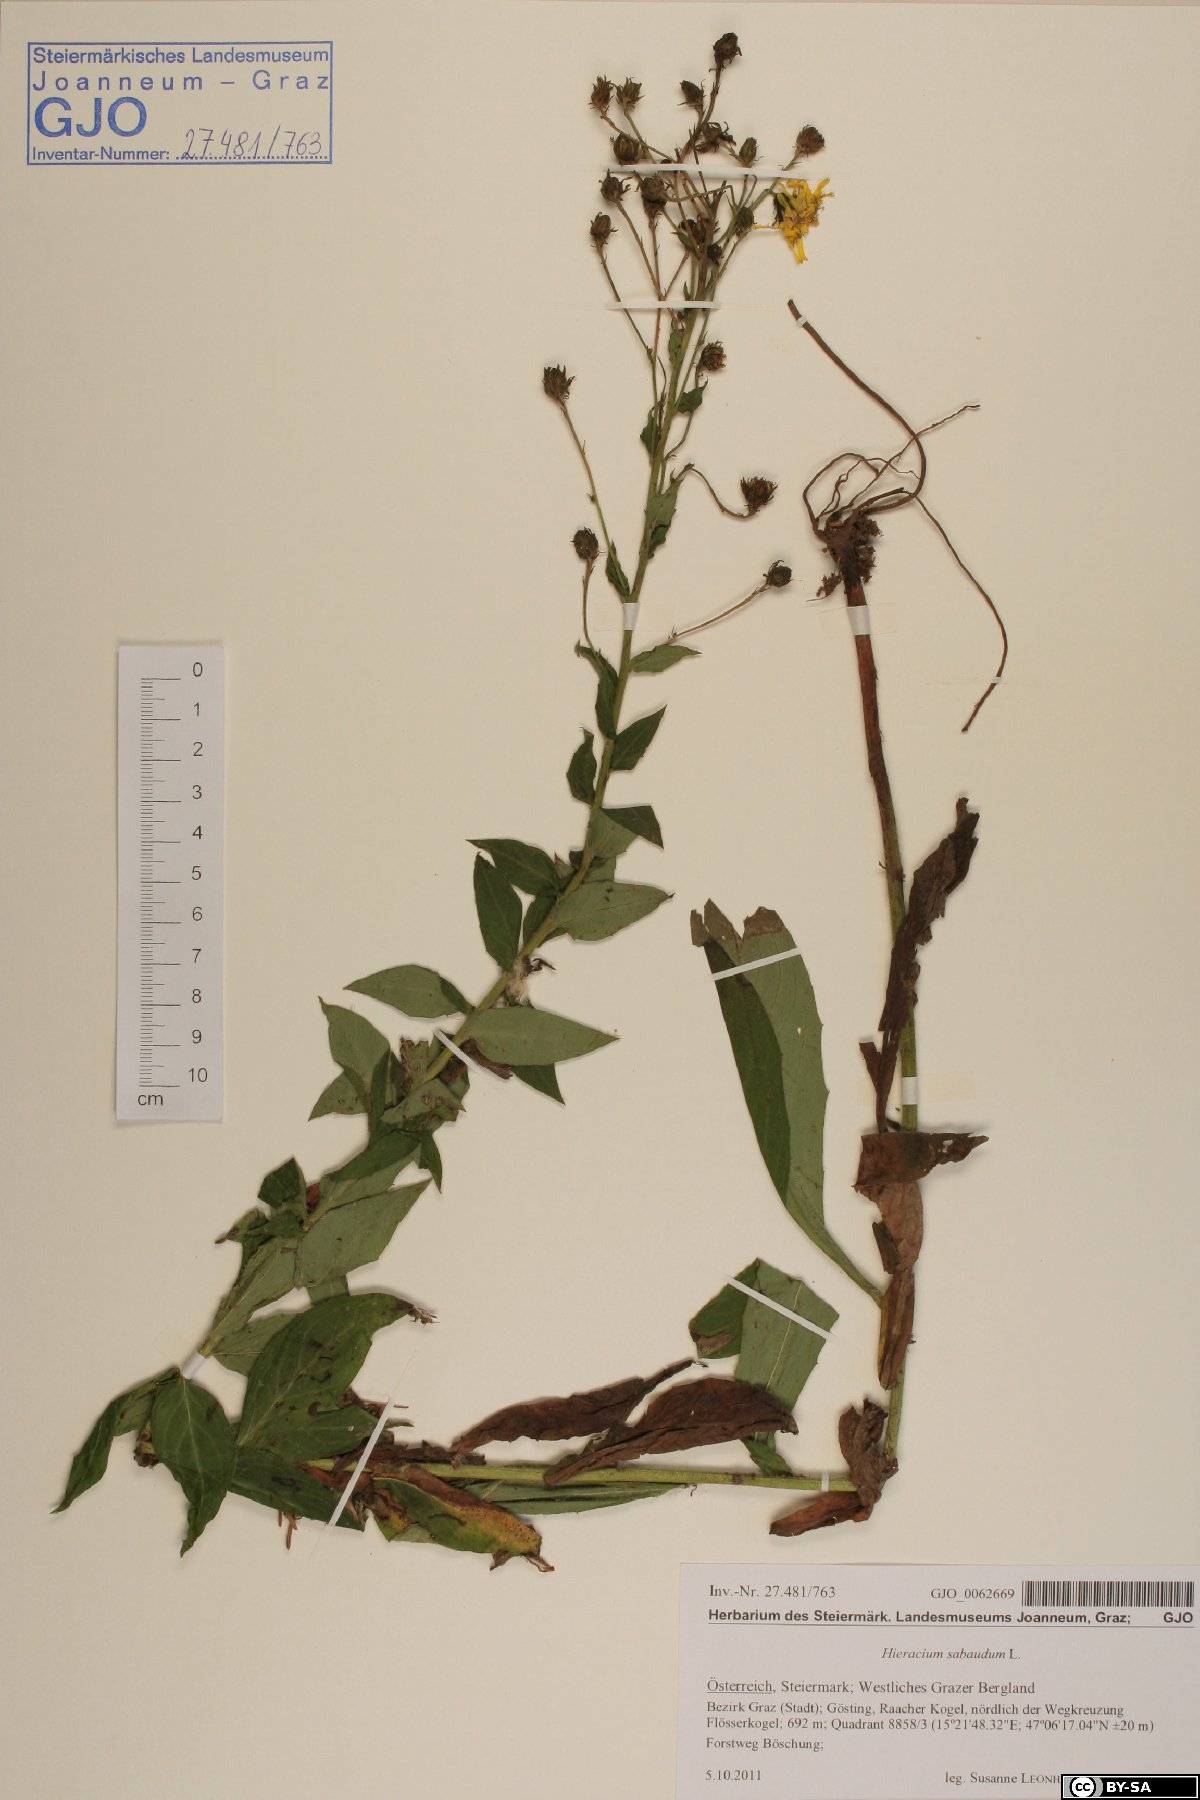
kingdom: Plantae
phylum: Tracheophyta
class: Magnoliopsida
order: Asterales
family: Asteraceae
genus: Hieracium
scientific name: Hieracium sabaudum
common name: New england hawkweed
